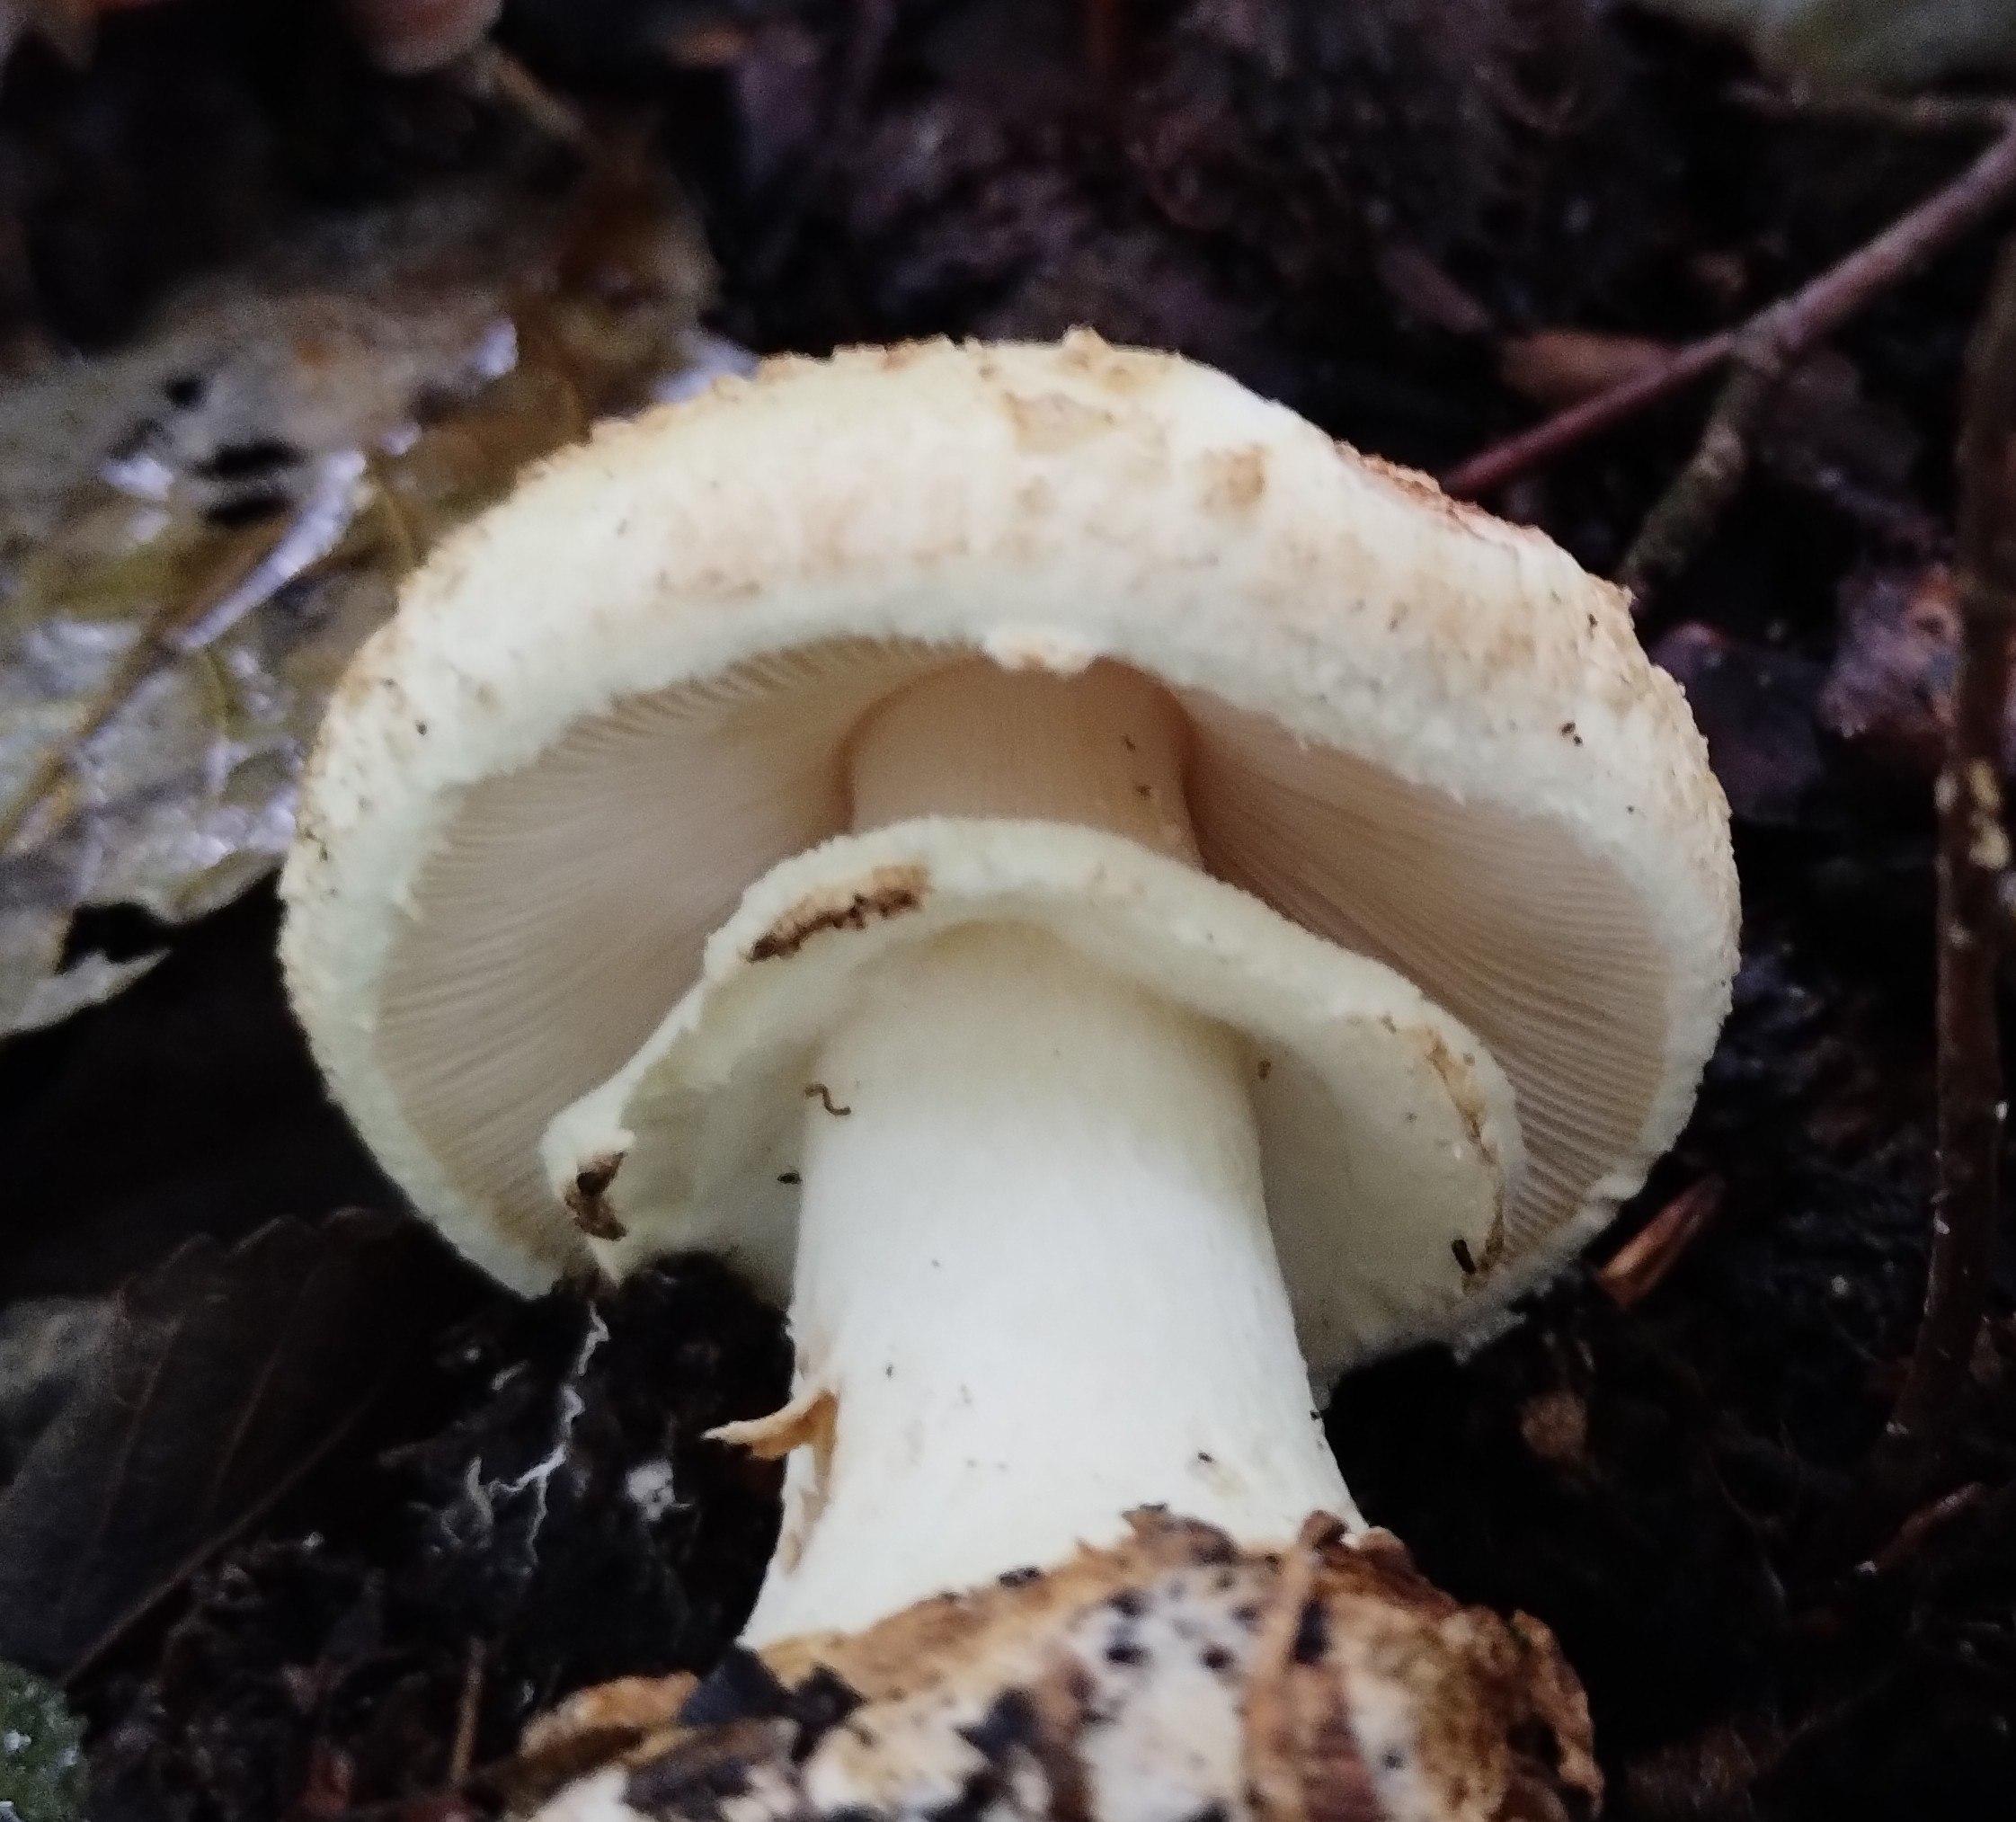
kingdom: Fungi
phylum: Basidiomycota
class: Agaricomycetes
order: Agaricales
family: Amanitaceae
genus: Amanita
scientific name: Amanita citrina
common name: kugleknoldet fluesvamp
